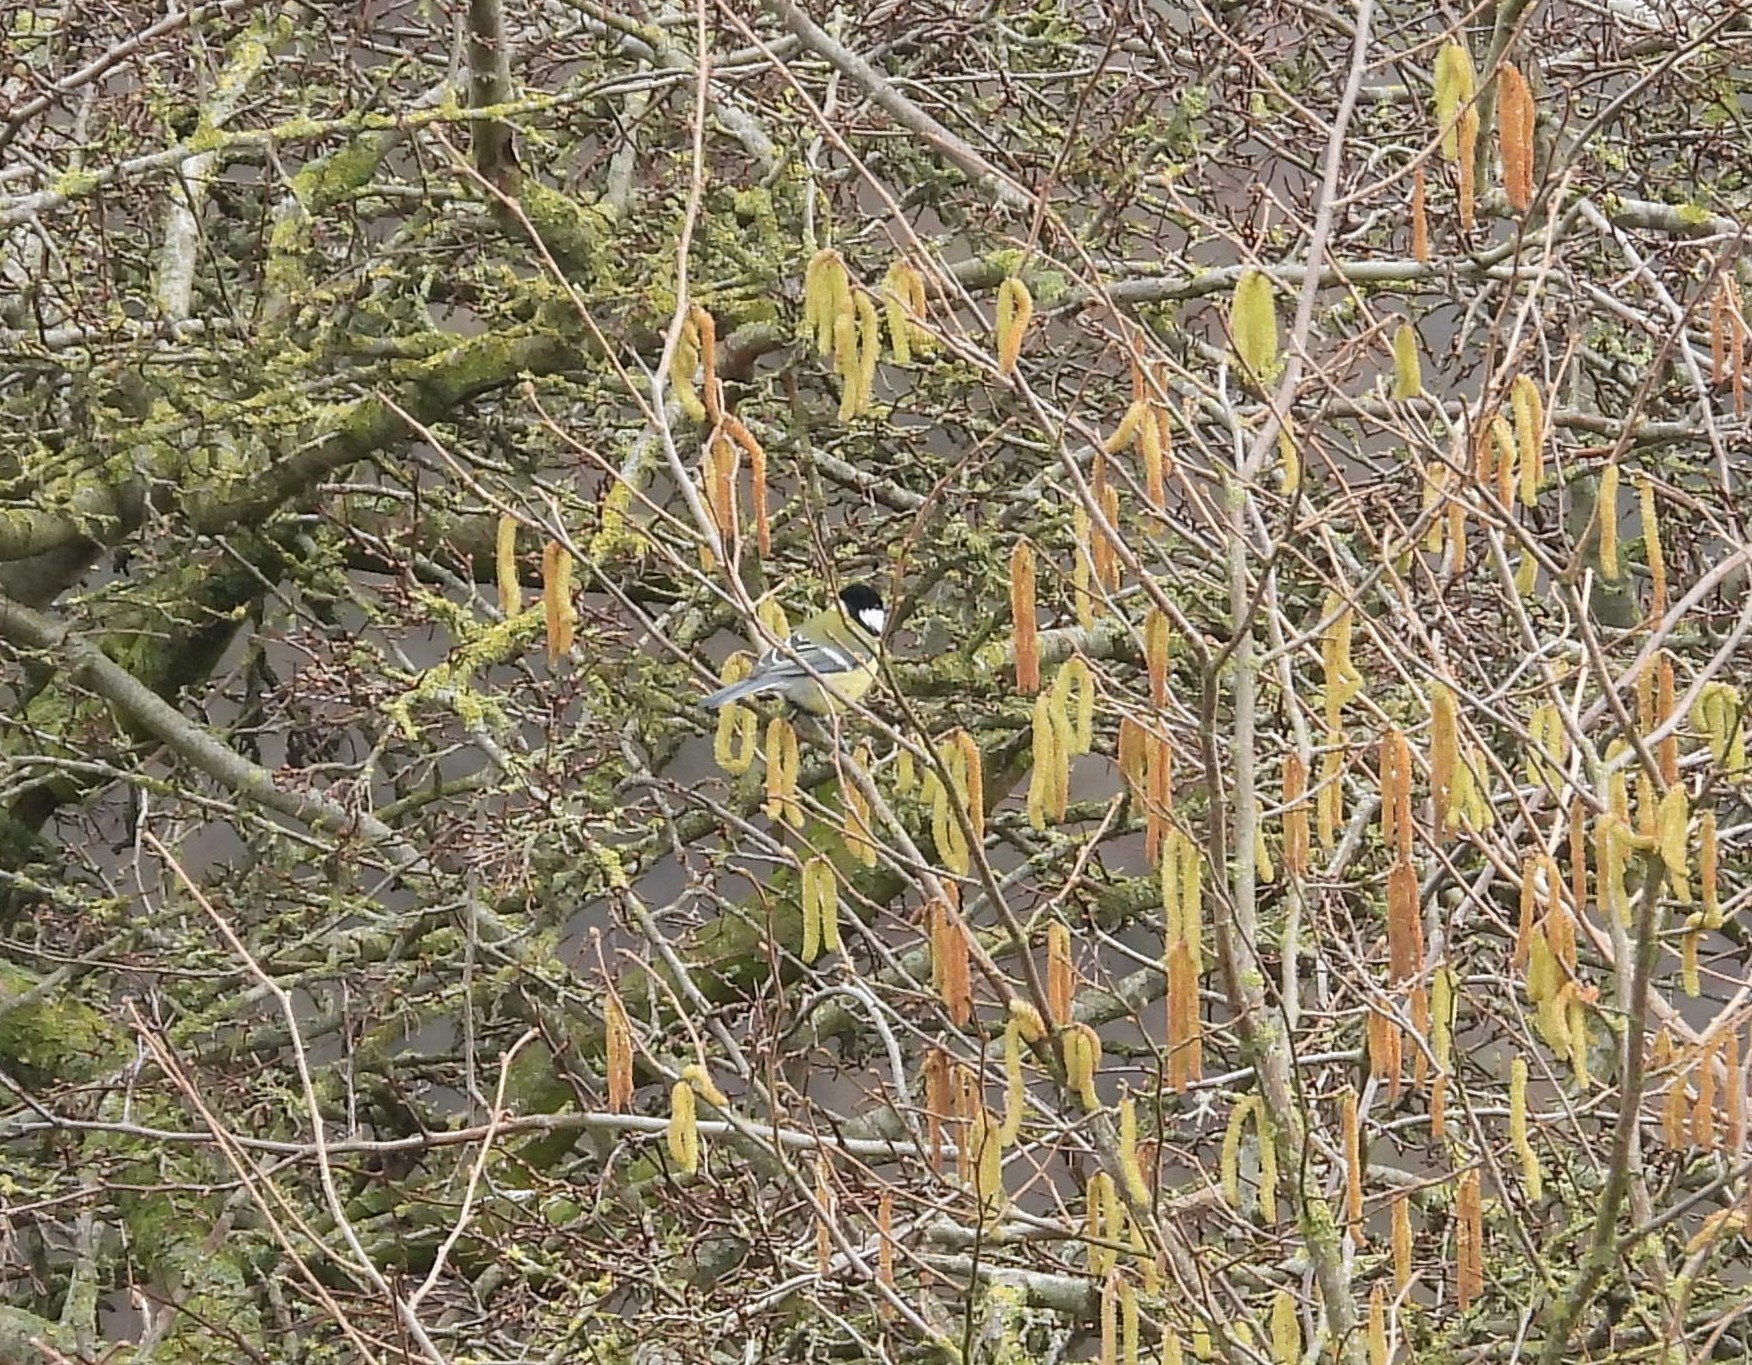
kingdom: Animalia
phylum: Chordata
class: Aves
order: Passeriformes
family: Paridae
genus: Parus
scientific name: Parus major
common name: Musvit
